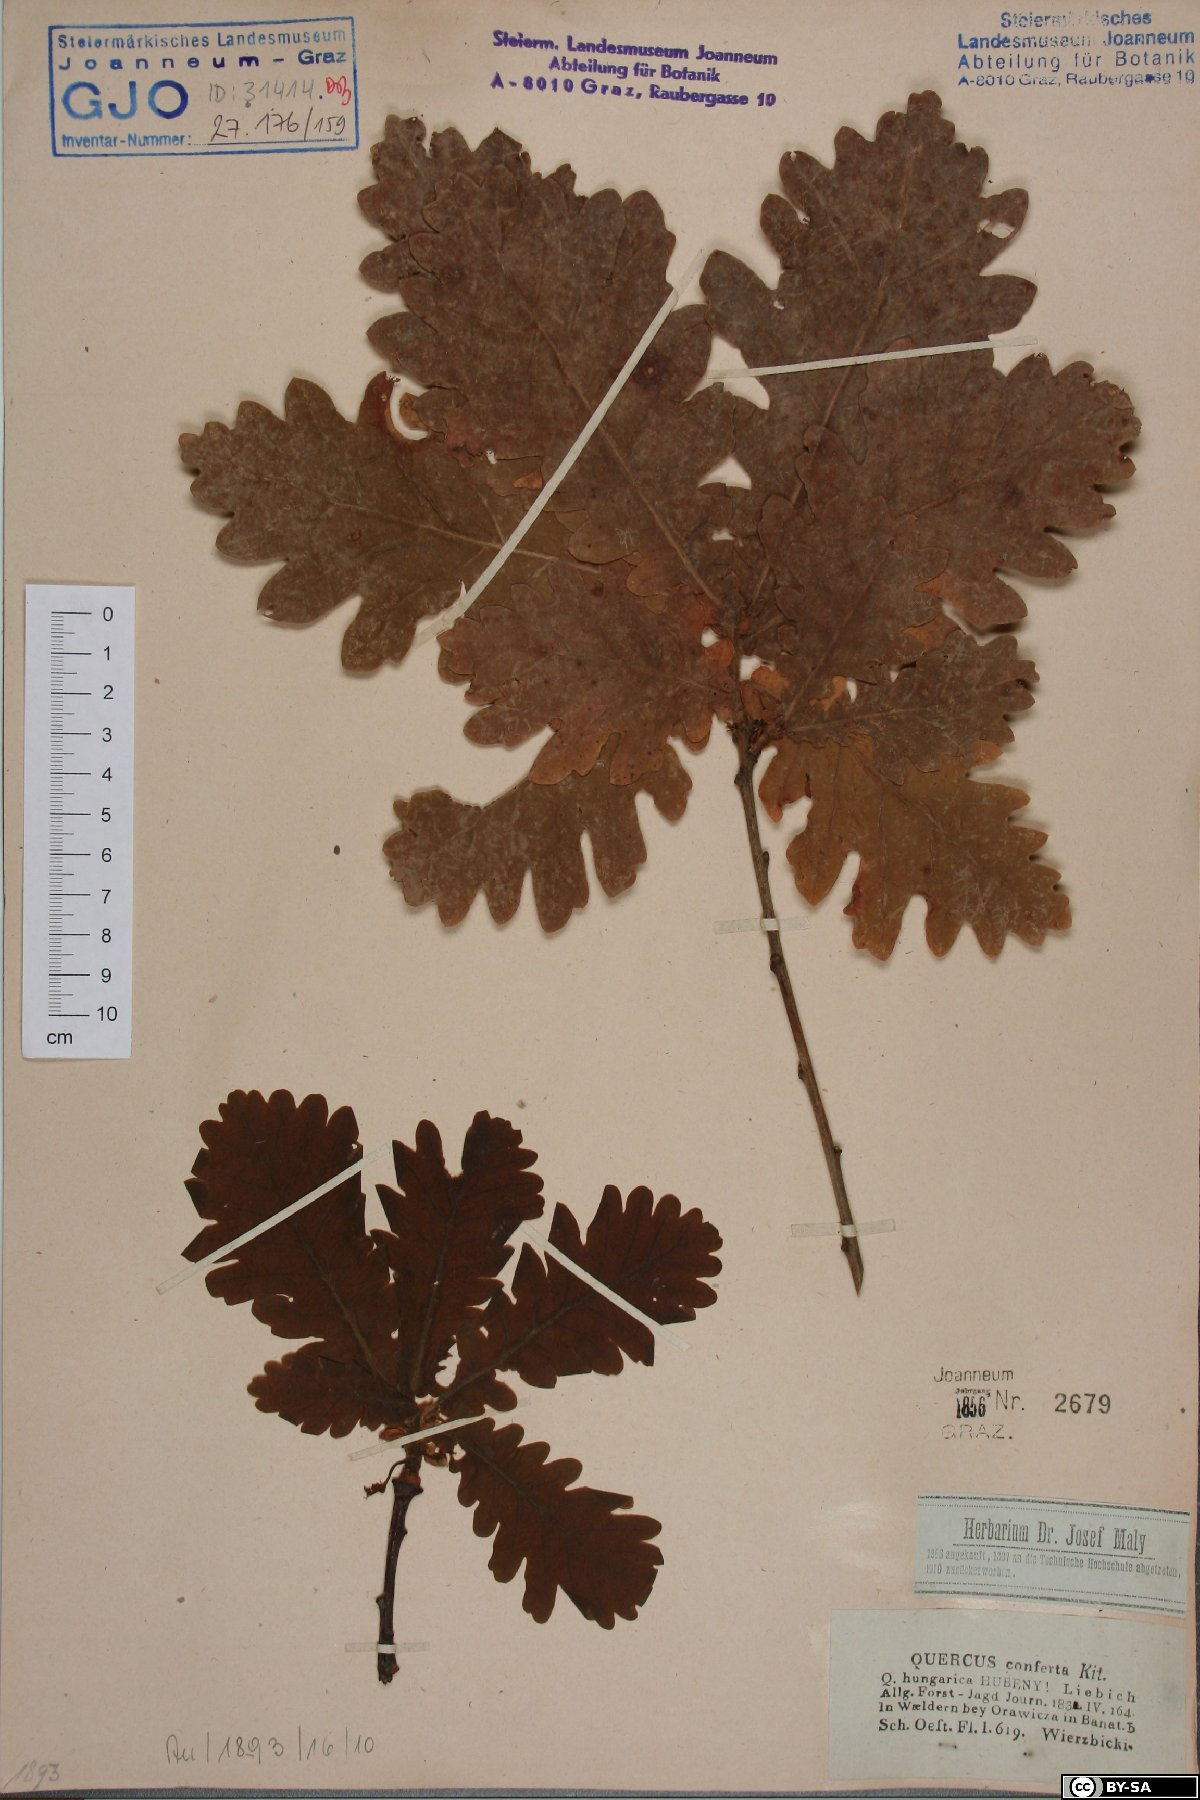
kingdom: Plantae
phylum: Tracheophyta
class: Magnoliopsida
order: Fagales
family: Fagaceae
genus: Quercus
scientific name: Quercus conferta
